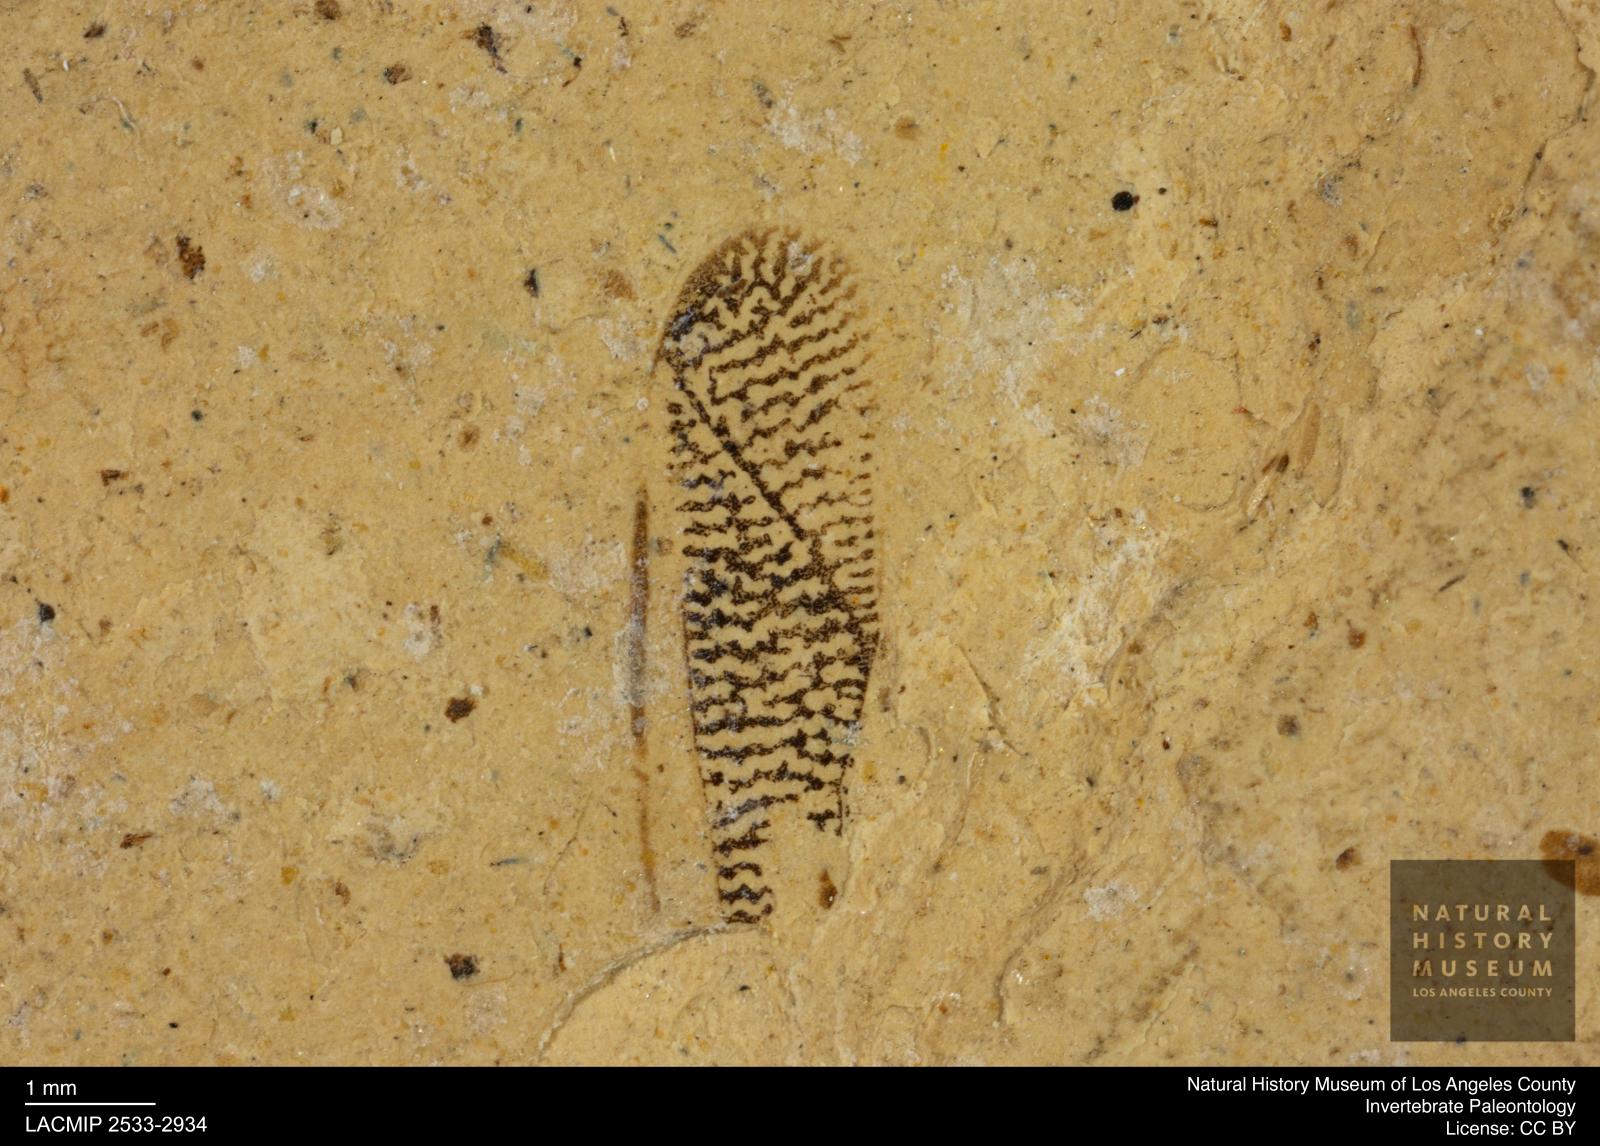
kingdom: Animalia
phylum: Arthropoda
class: Insecta
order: Hemiptera
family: Corixidae
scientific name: Corixidae
